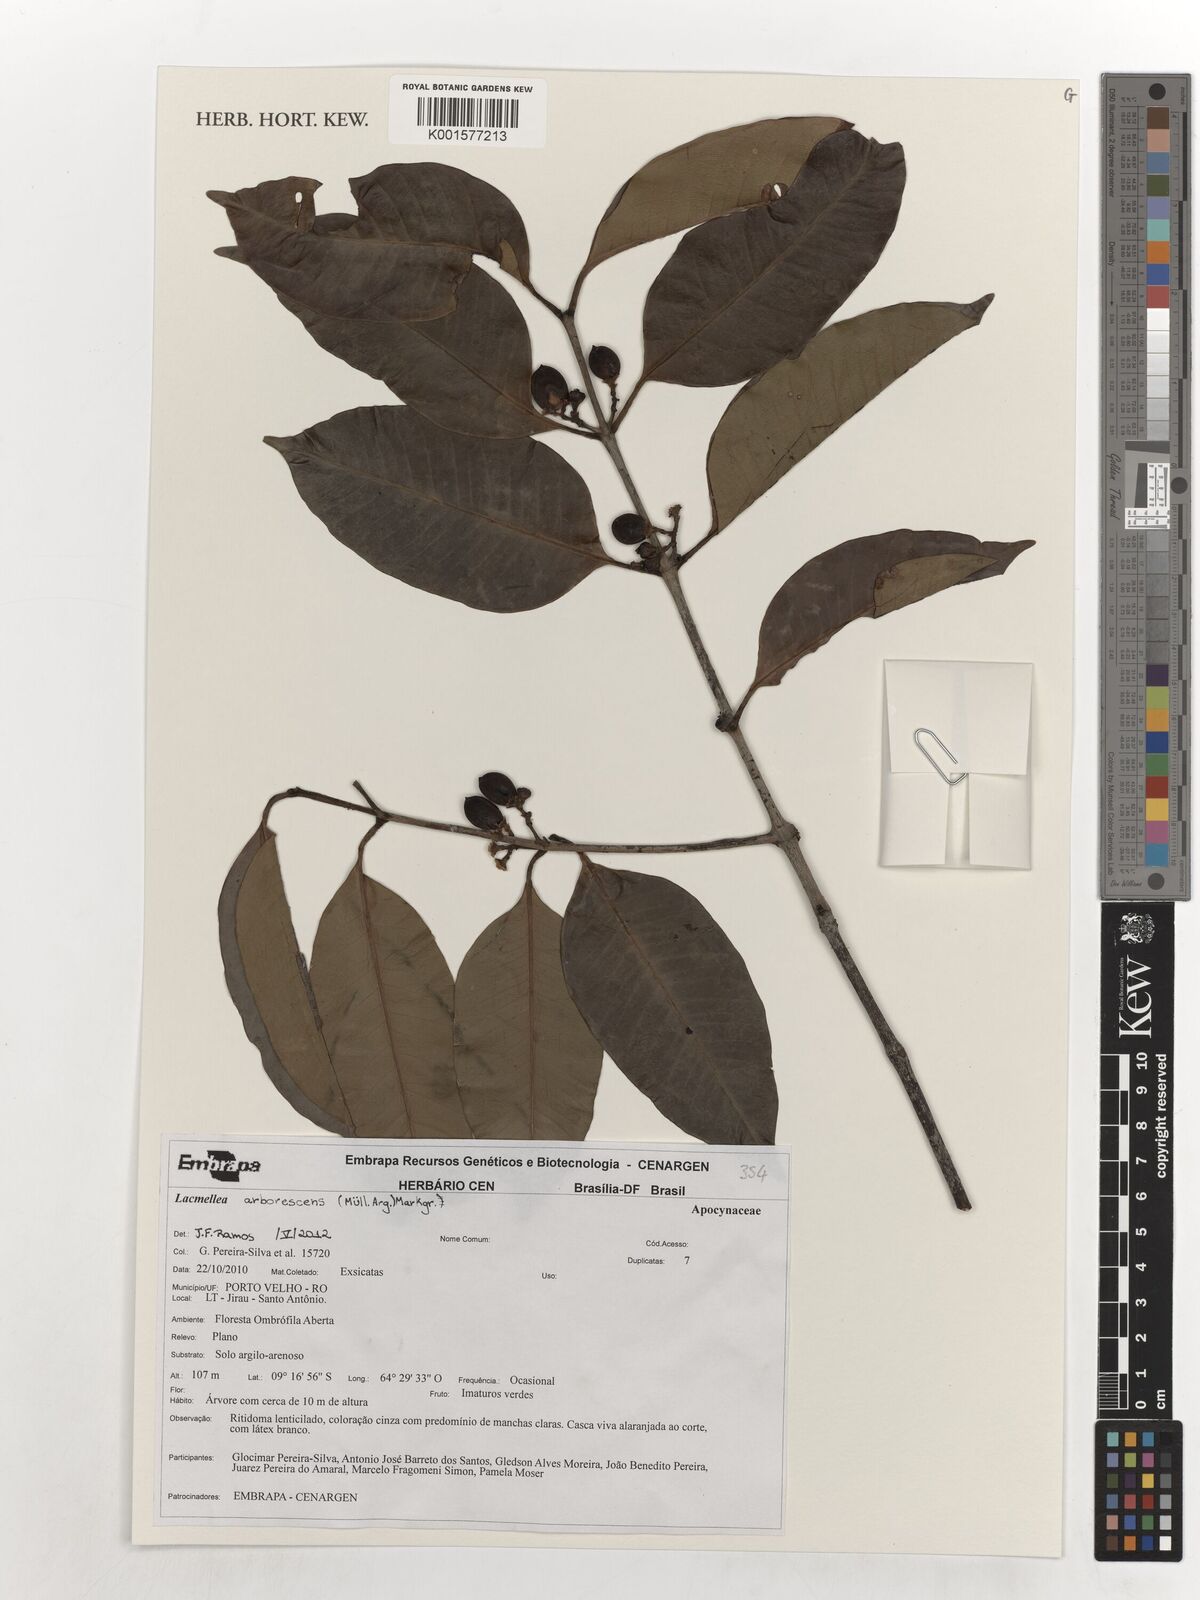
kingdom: Plantae
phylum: Tracheophyta
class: Magnoliopsida
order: Gentianales
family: Apocynaceae
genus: Lacmellea
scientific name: Lacmellea arborescens
